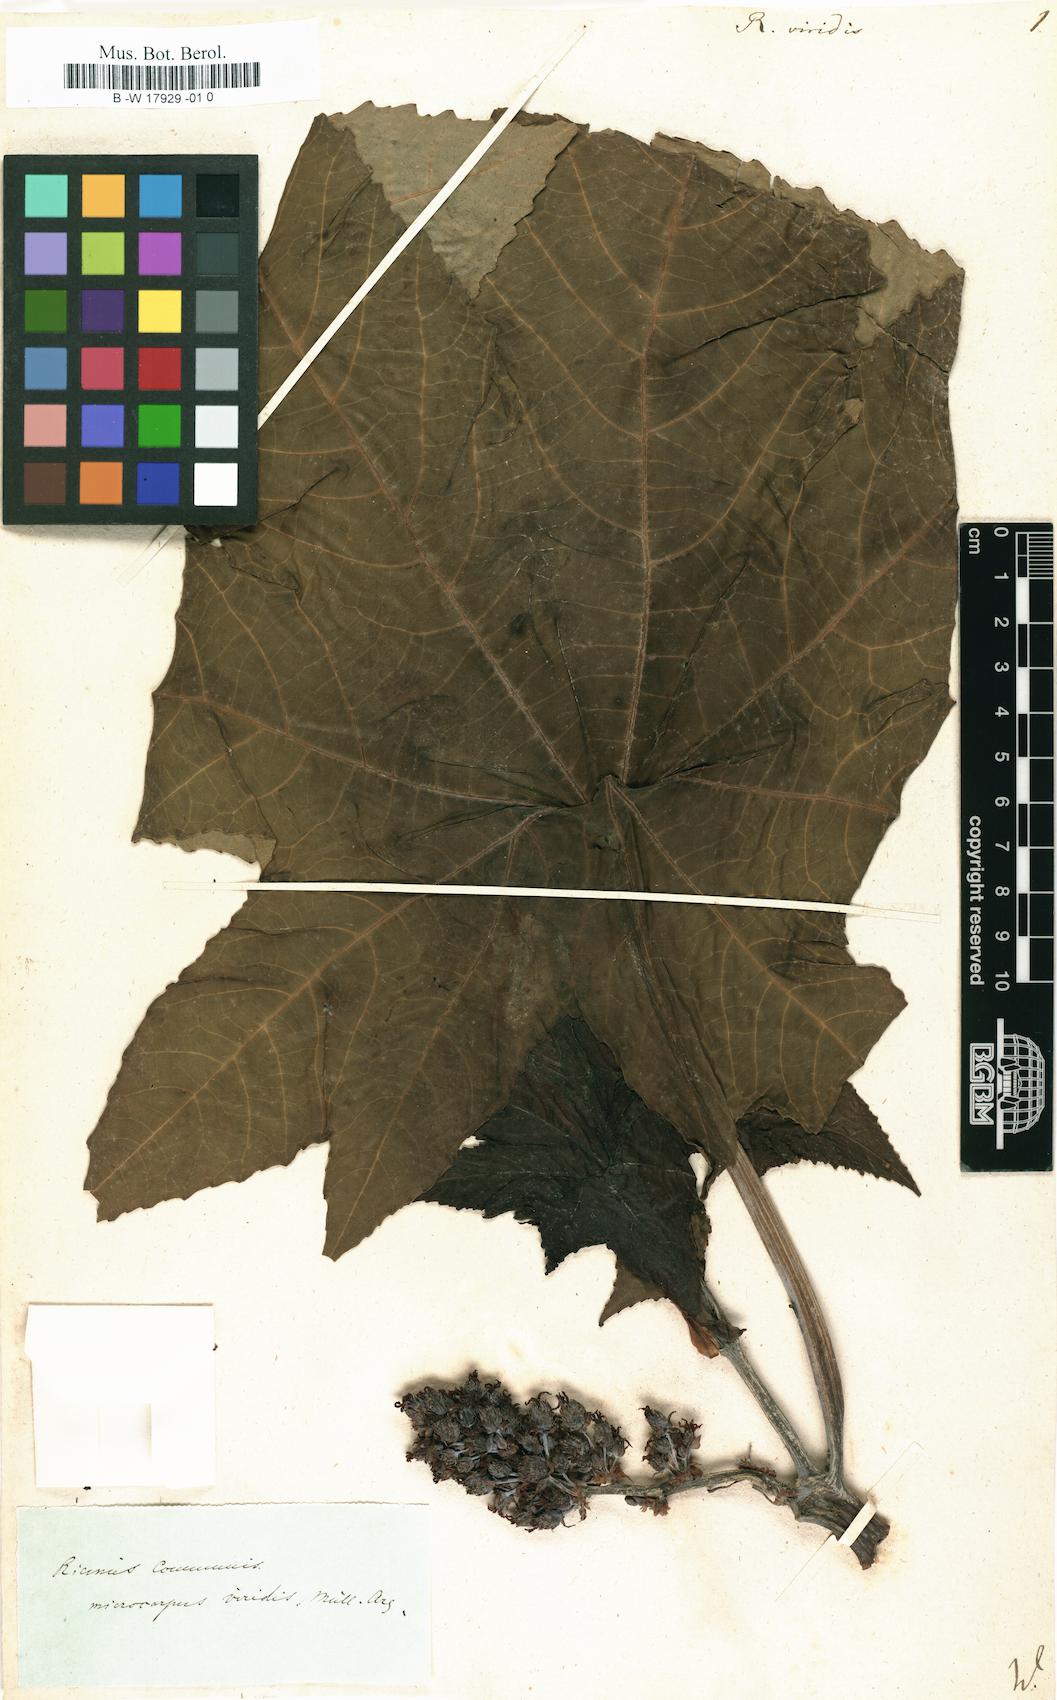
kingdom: Plantae
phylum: Tracheophyta
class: Magnoliopsida
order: Malpighiales
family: Euphorbiaceae
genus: Ricinus
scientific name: Ricinus communis
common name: Castor-oil-plant
